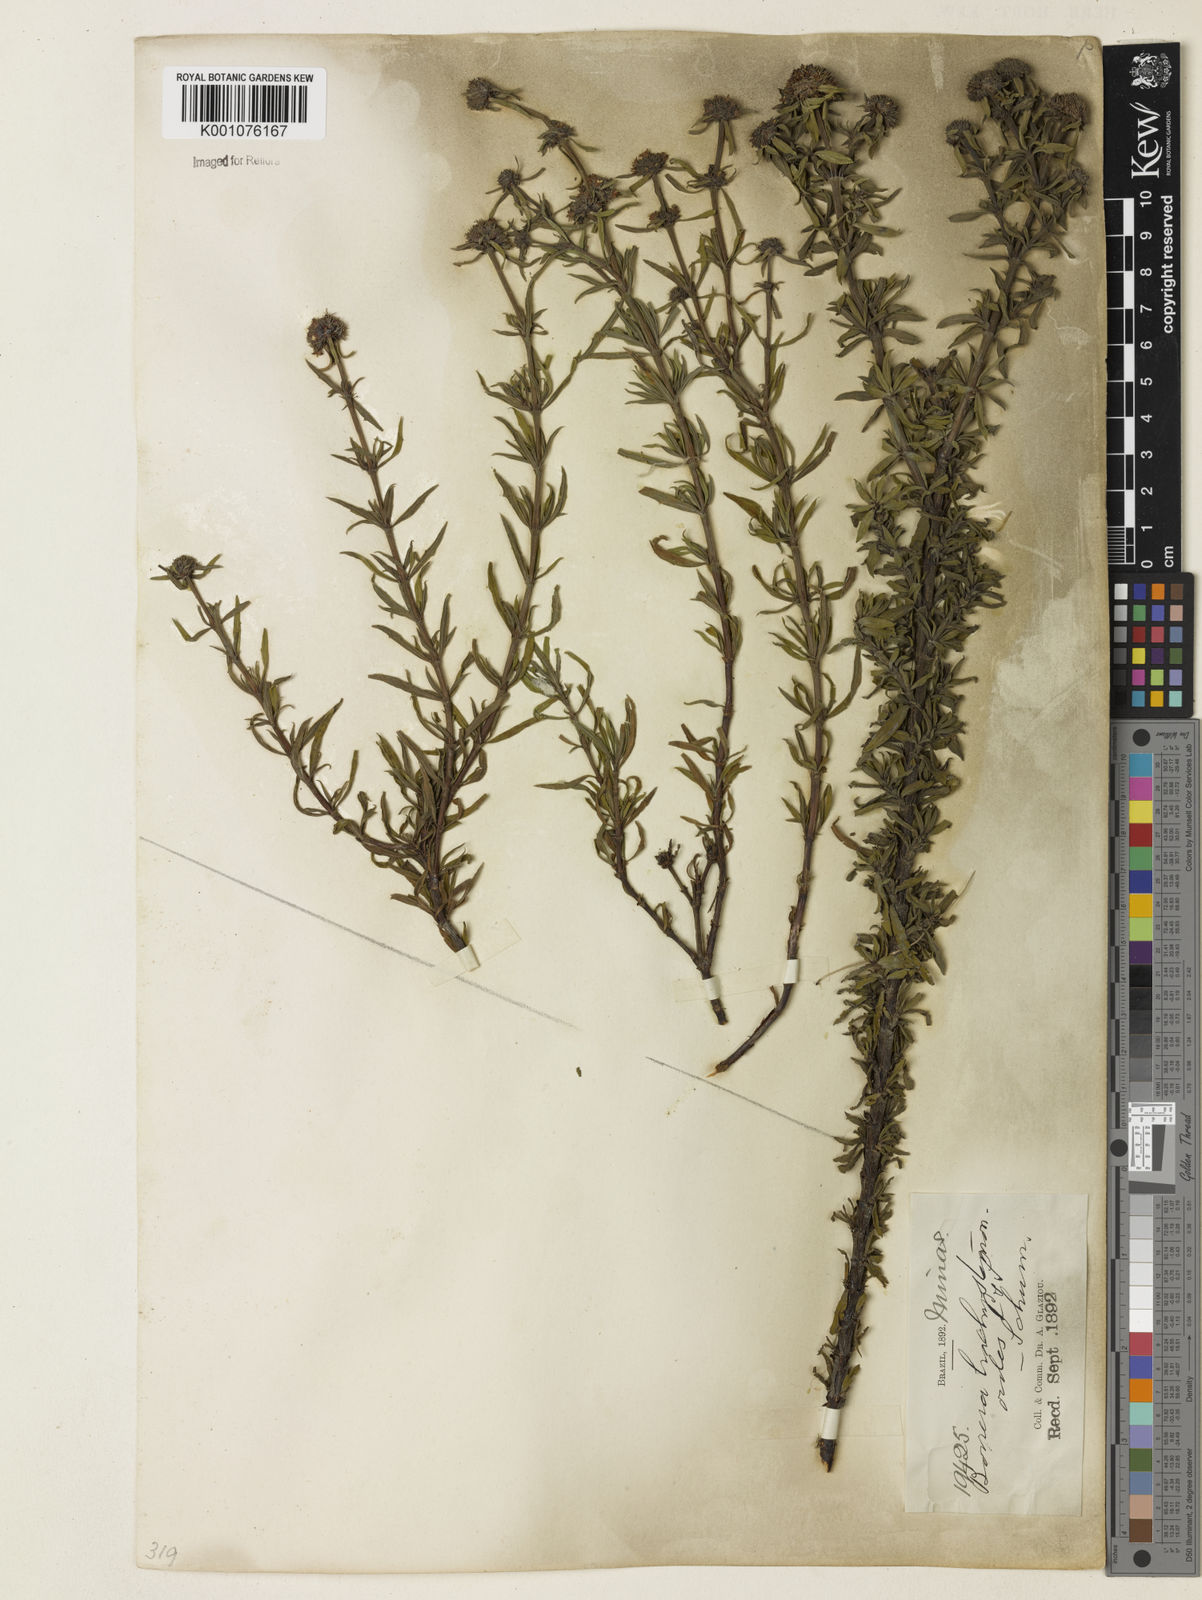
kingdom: Plantae
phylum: Tracheophyta
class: Magnoliopsida
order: Gentianales
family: Rubiaceae
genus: Spermacoce
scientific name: Spermacoce brachystemonoides
